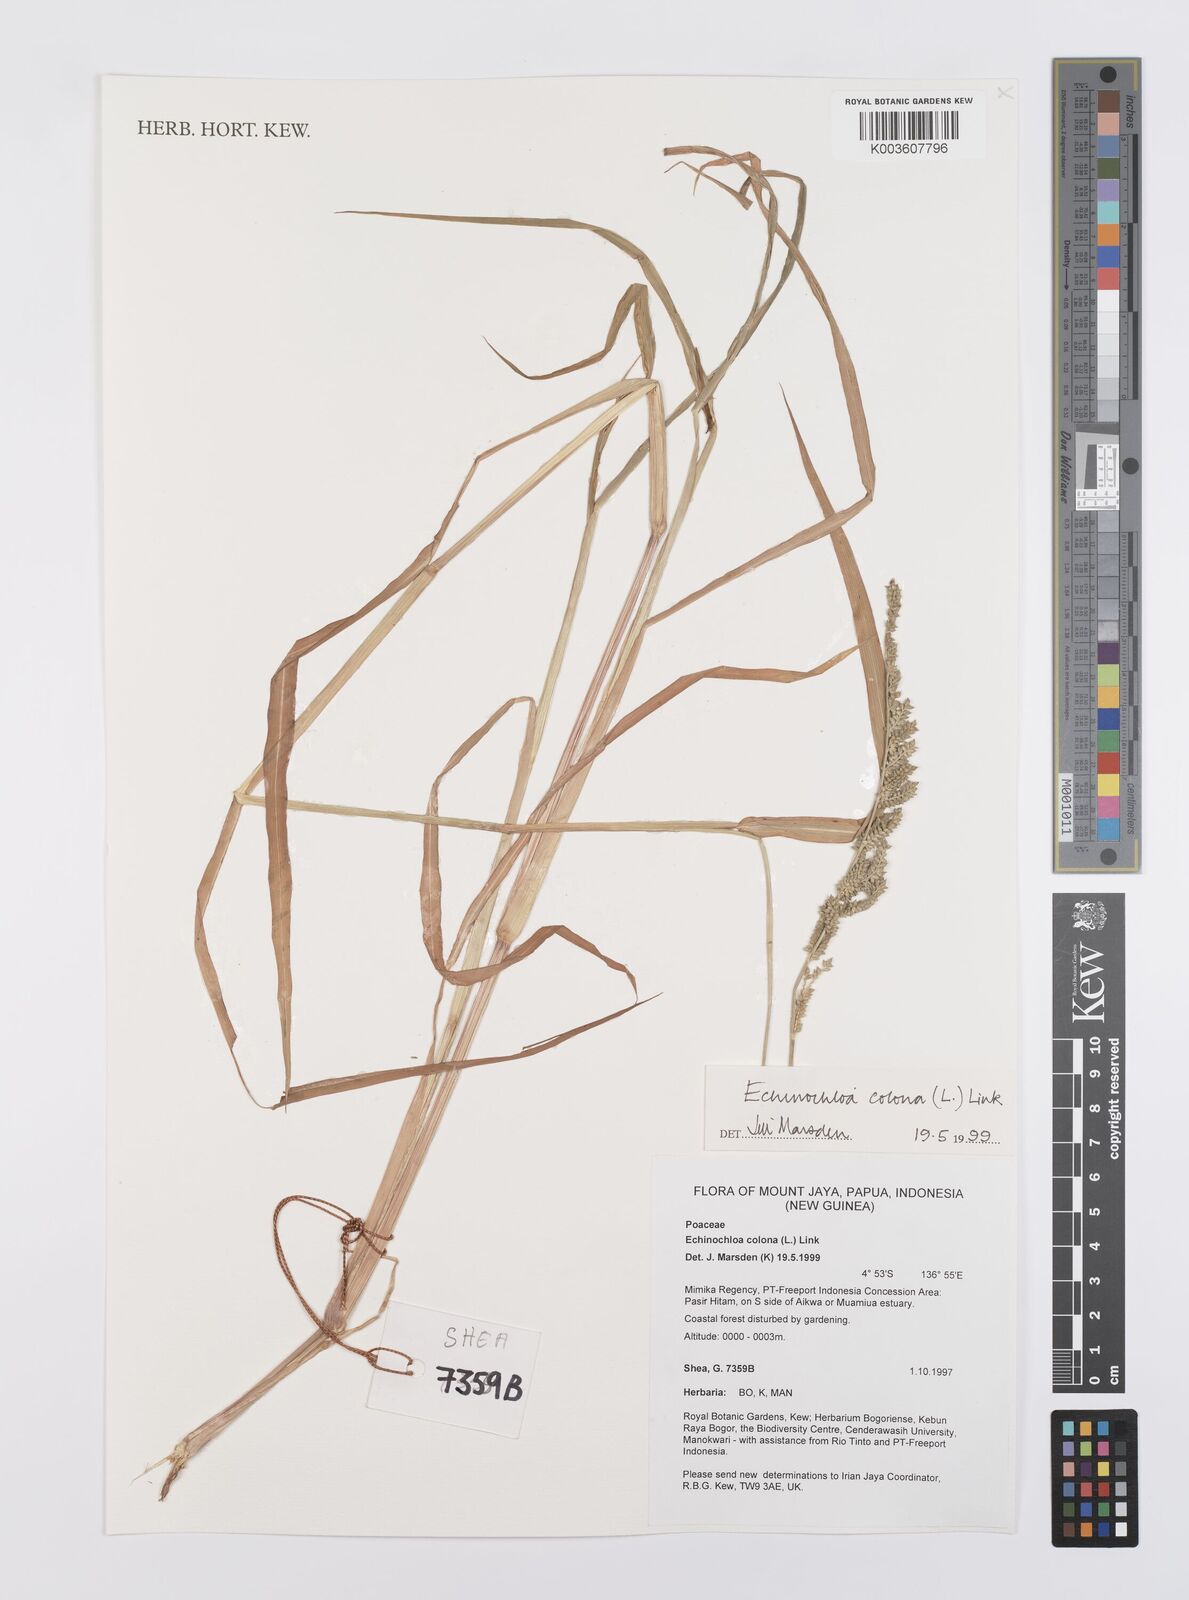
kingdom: Plantae
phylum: Tracheophyta
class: Liliopsida
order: Poales
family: Poaceae
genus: Echinochloa
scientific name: Echinochloa colonum
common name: Jungle rice
